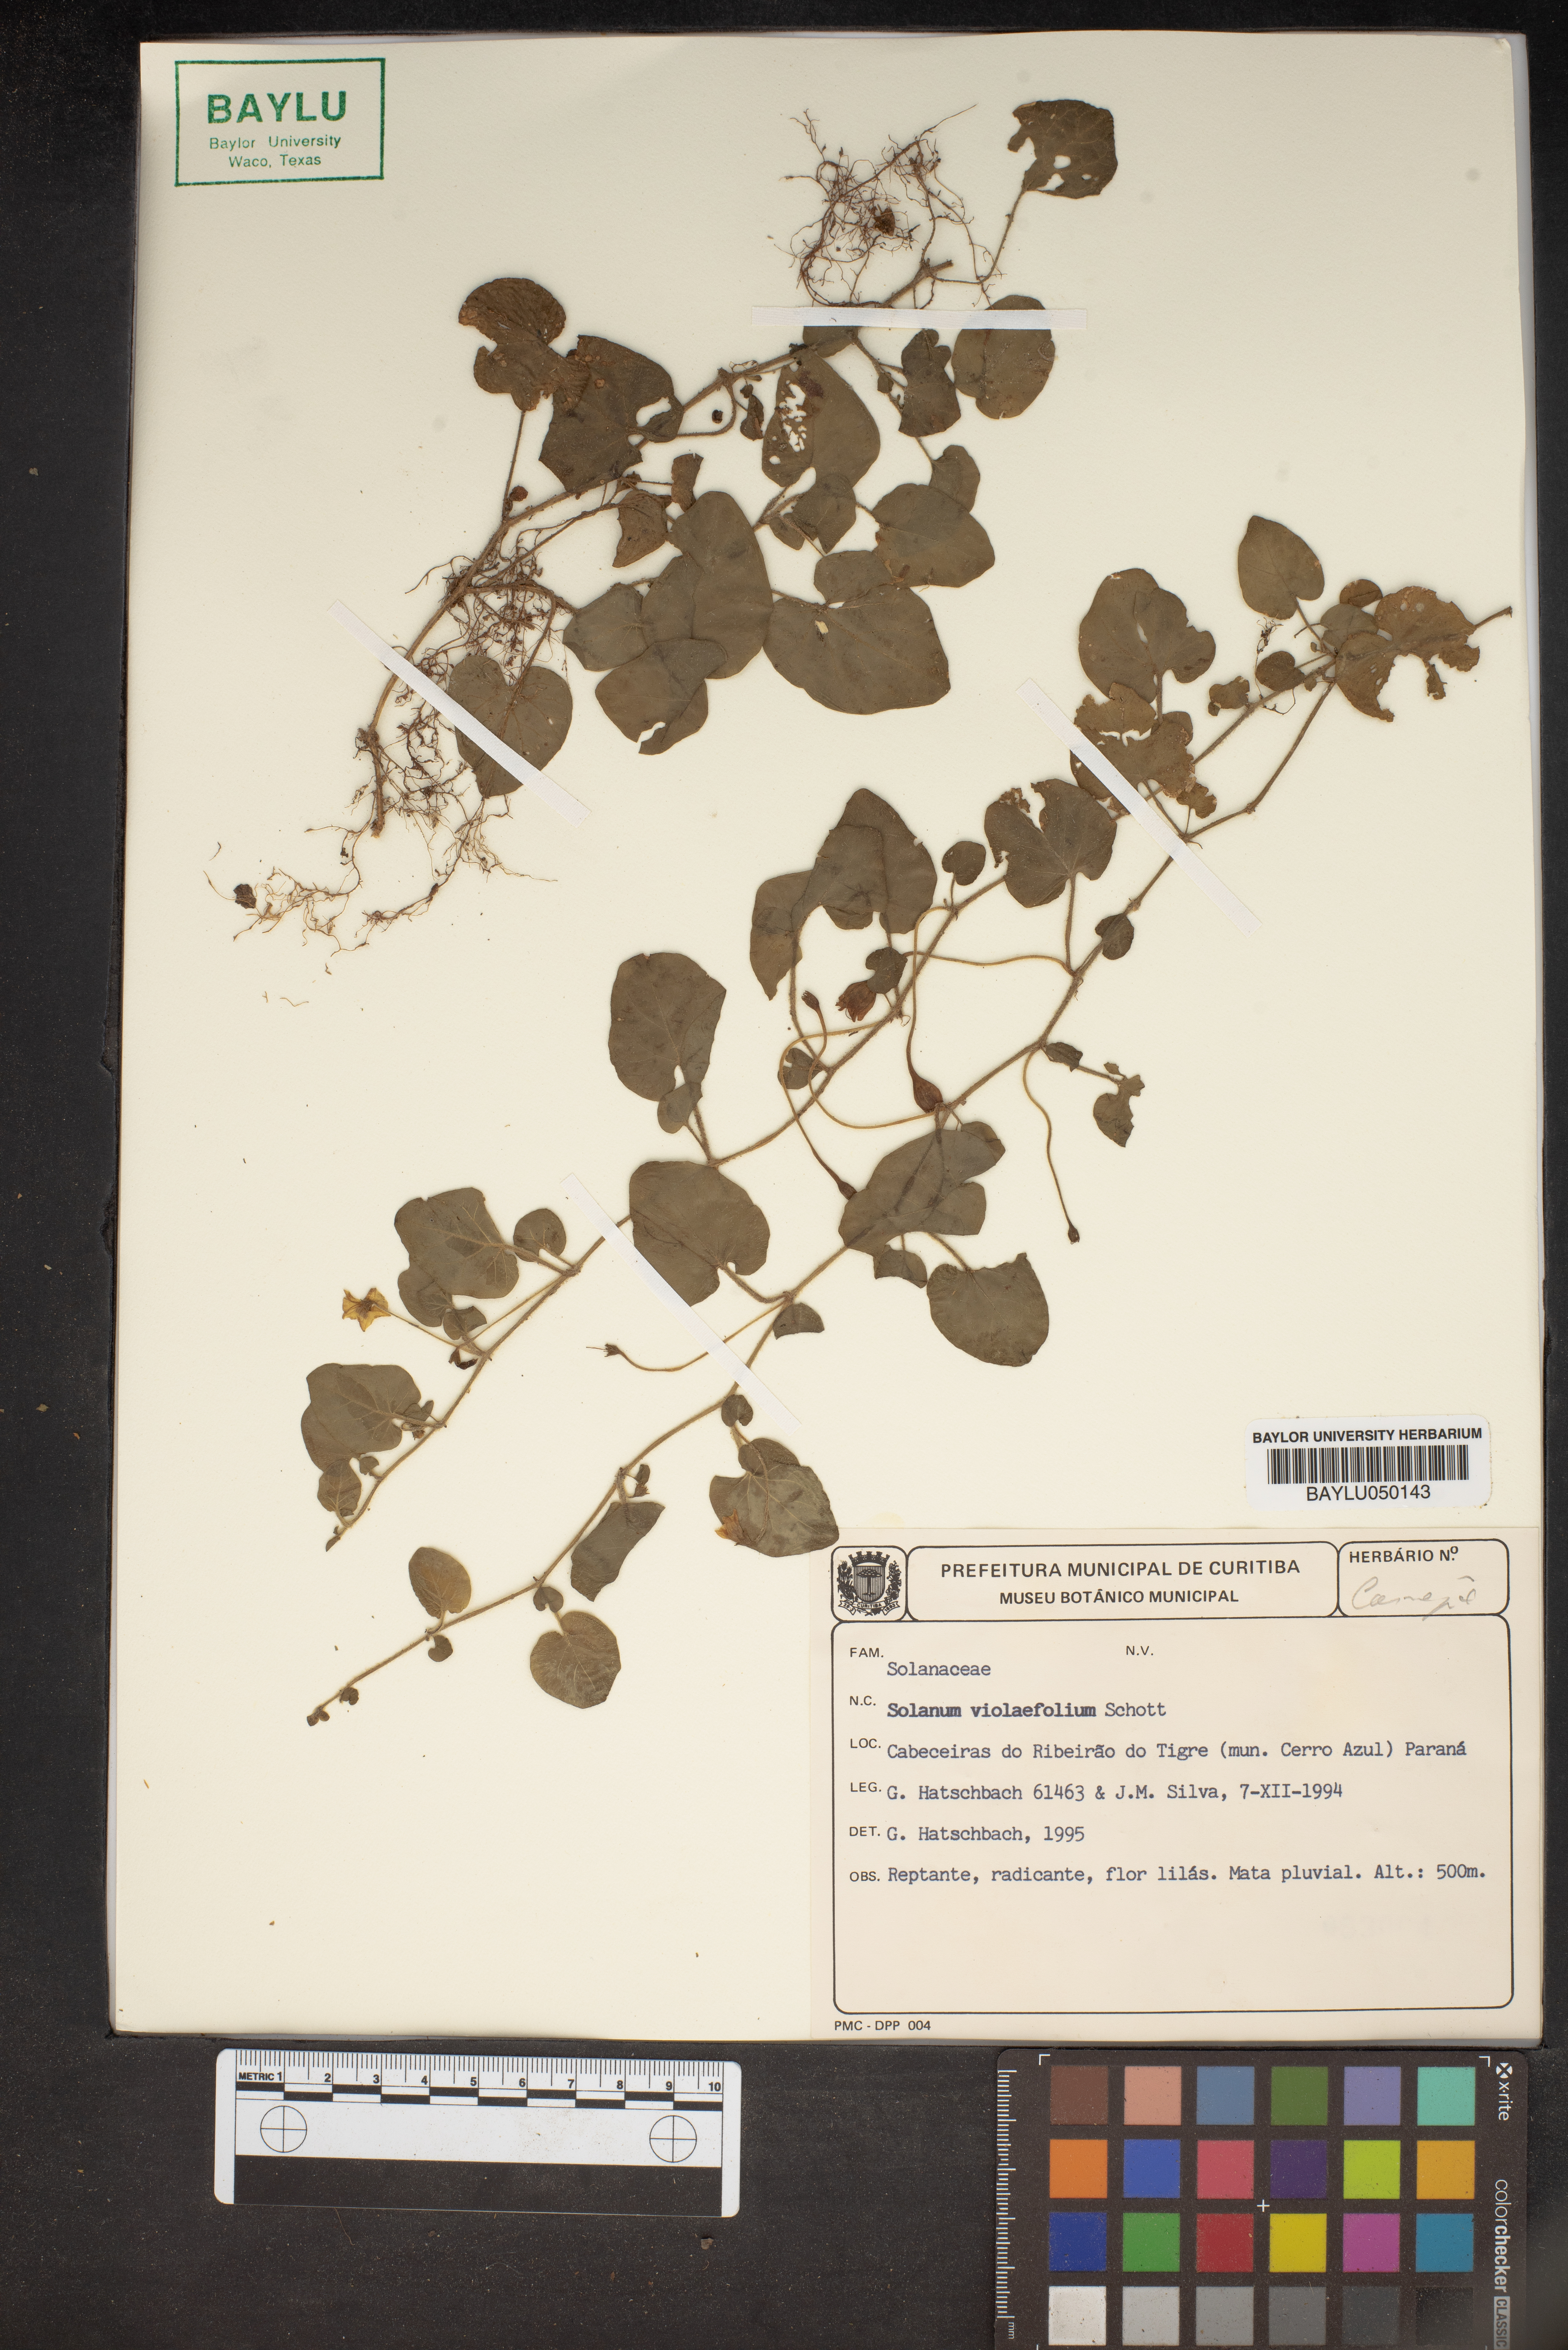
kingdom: Plantae
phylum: Tracheophyta
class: Magnoliopsida
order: Solanales
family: Solanaceae
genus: Lycianthes
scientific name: Lycianthes repens
